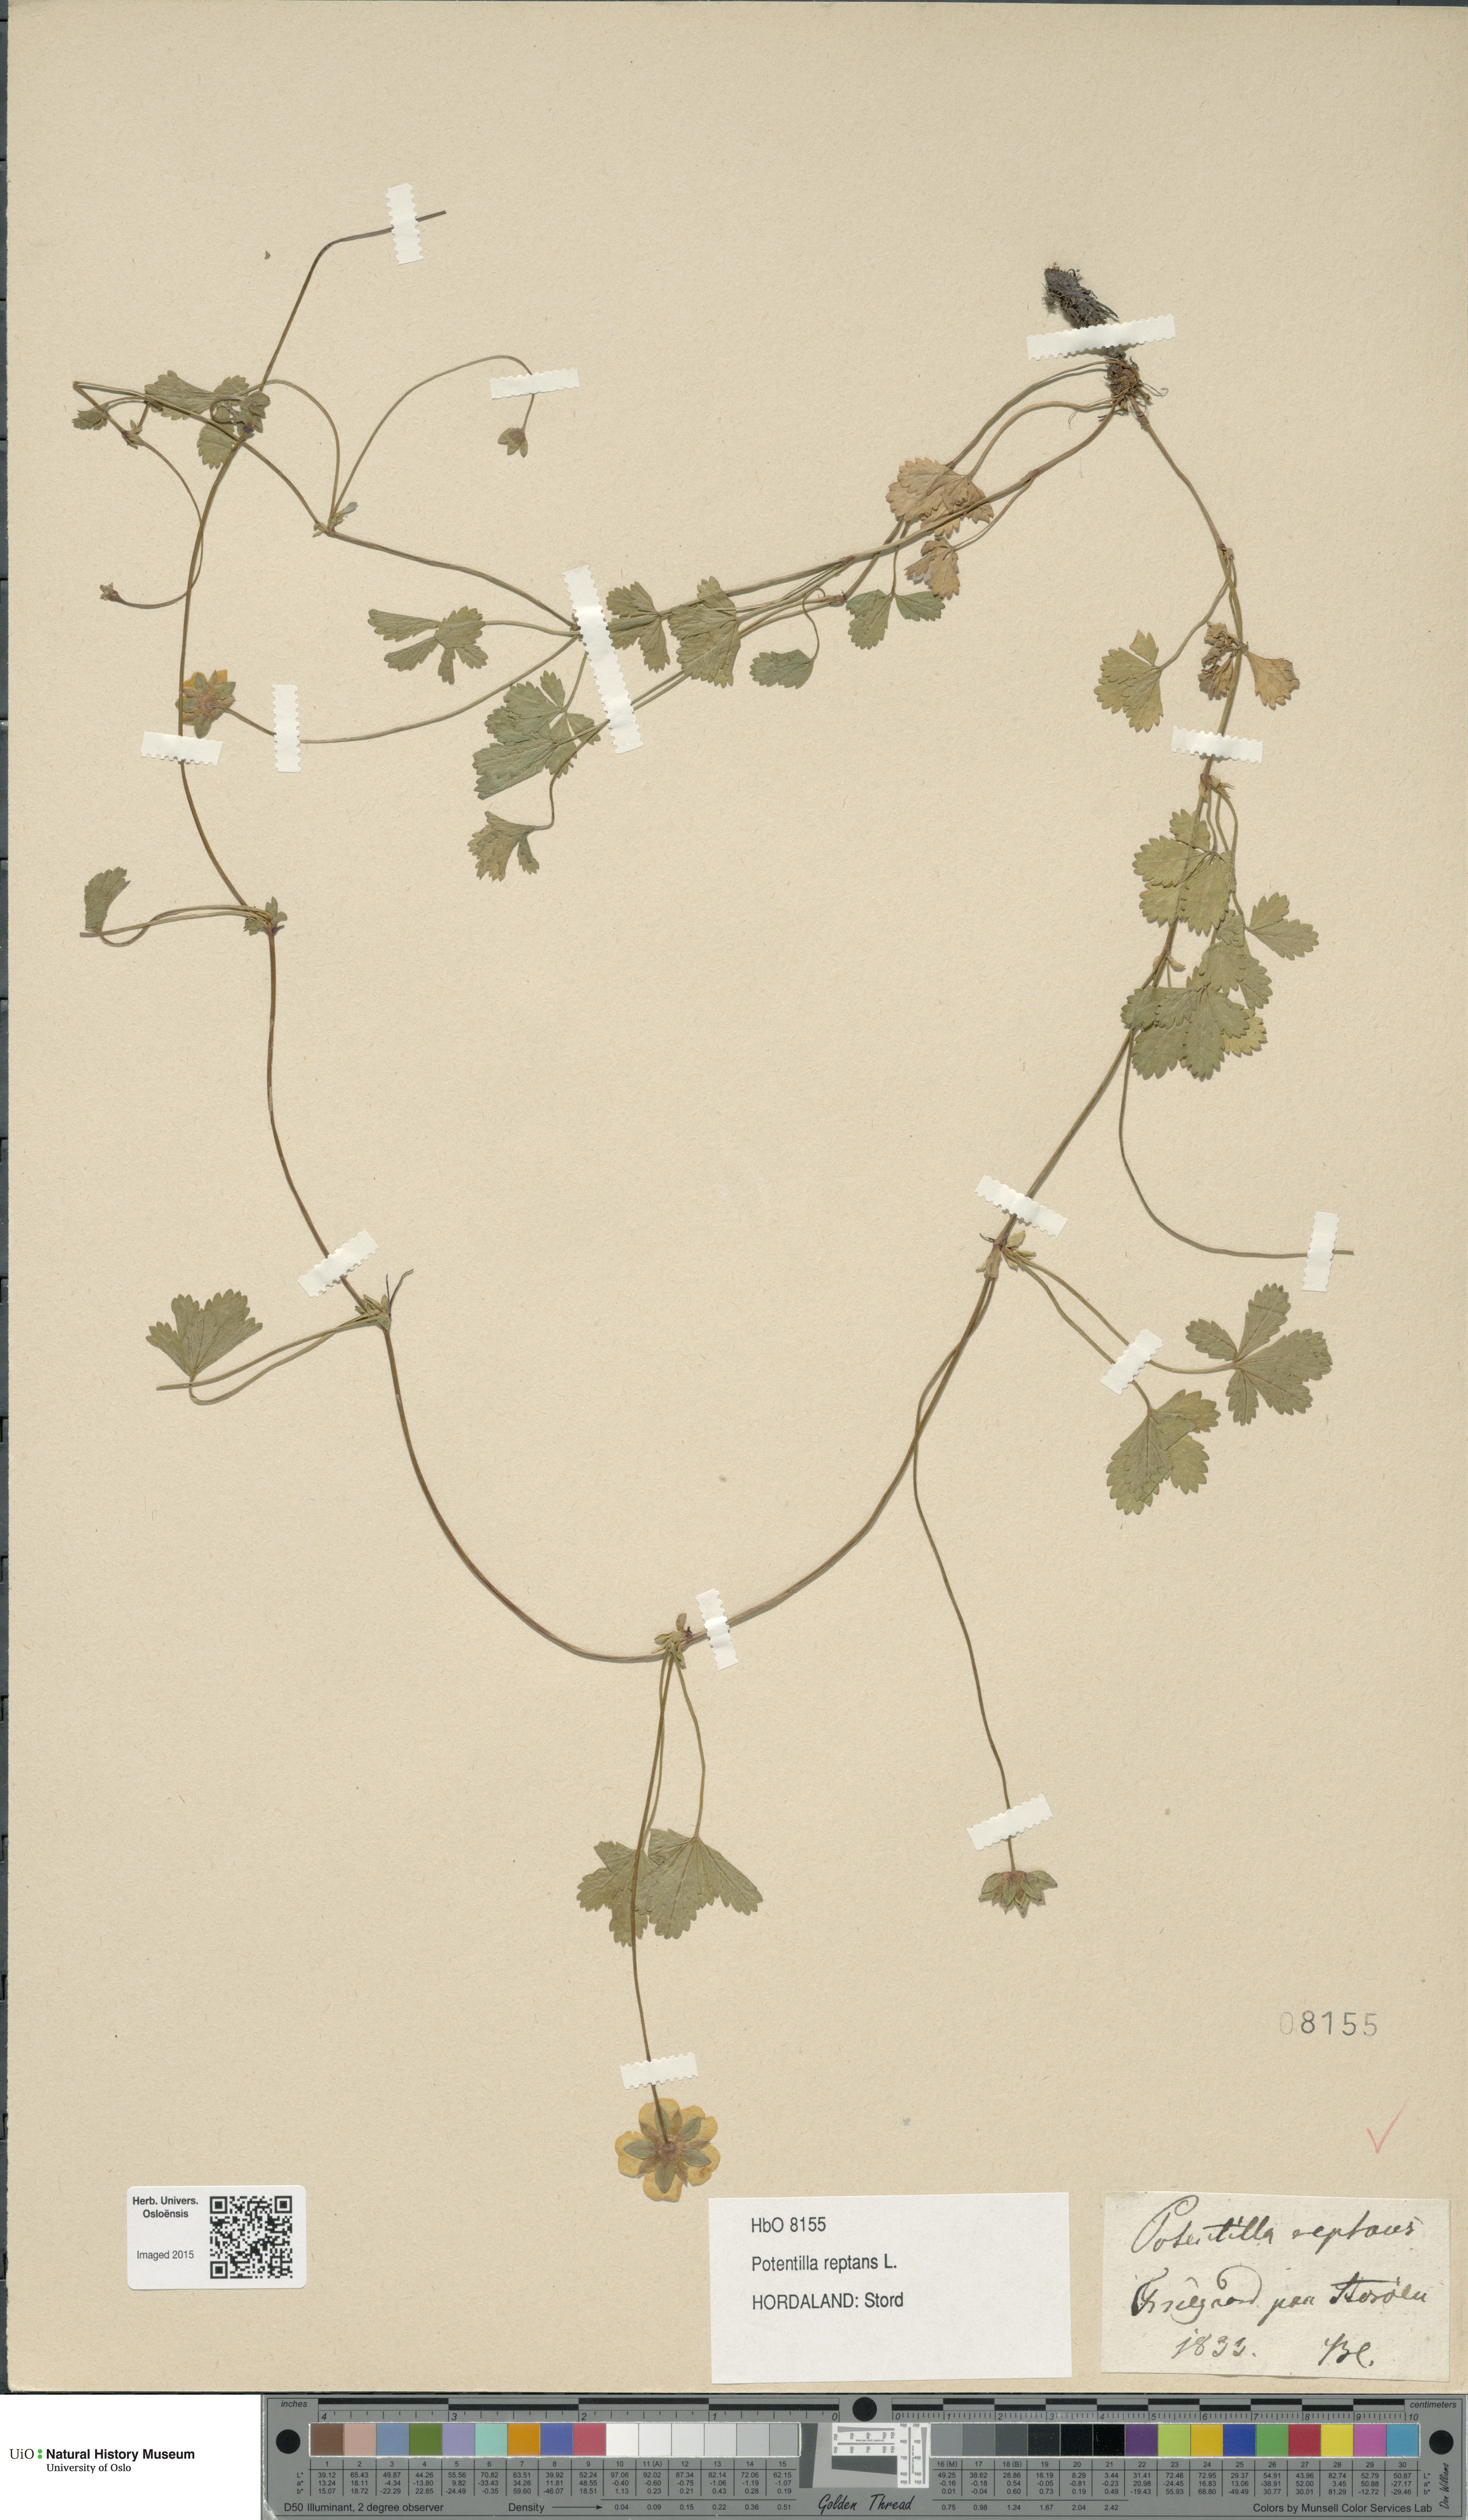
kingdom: Plantae
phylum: Tracheophyta
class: Magnoliopsida
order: Rosales
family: Rosaceae
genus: Potentilla
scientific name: Potentilla reptans
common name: Creeping cinquefoil
